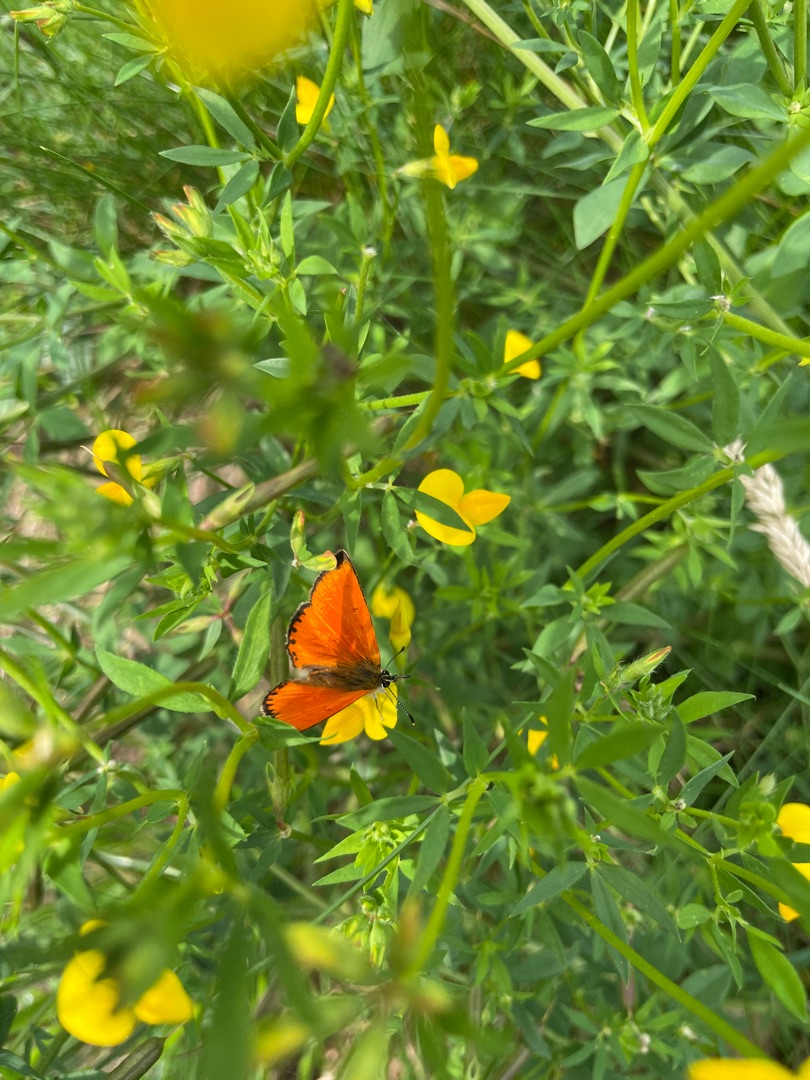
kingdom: Animalia
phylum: Arthropoda
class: Insecta
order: Lepidoptera
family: Lycaenidae
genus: Lycaena
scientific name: Lycaena virgaureae
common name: Dukatsommerfugl
